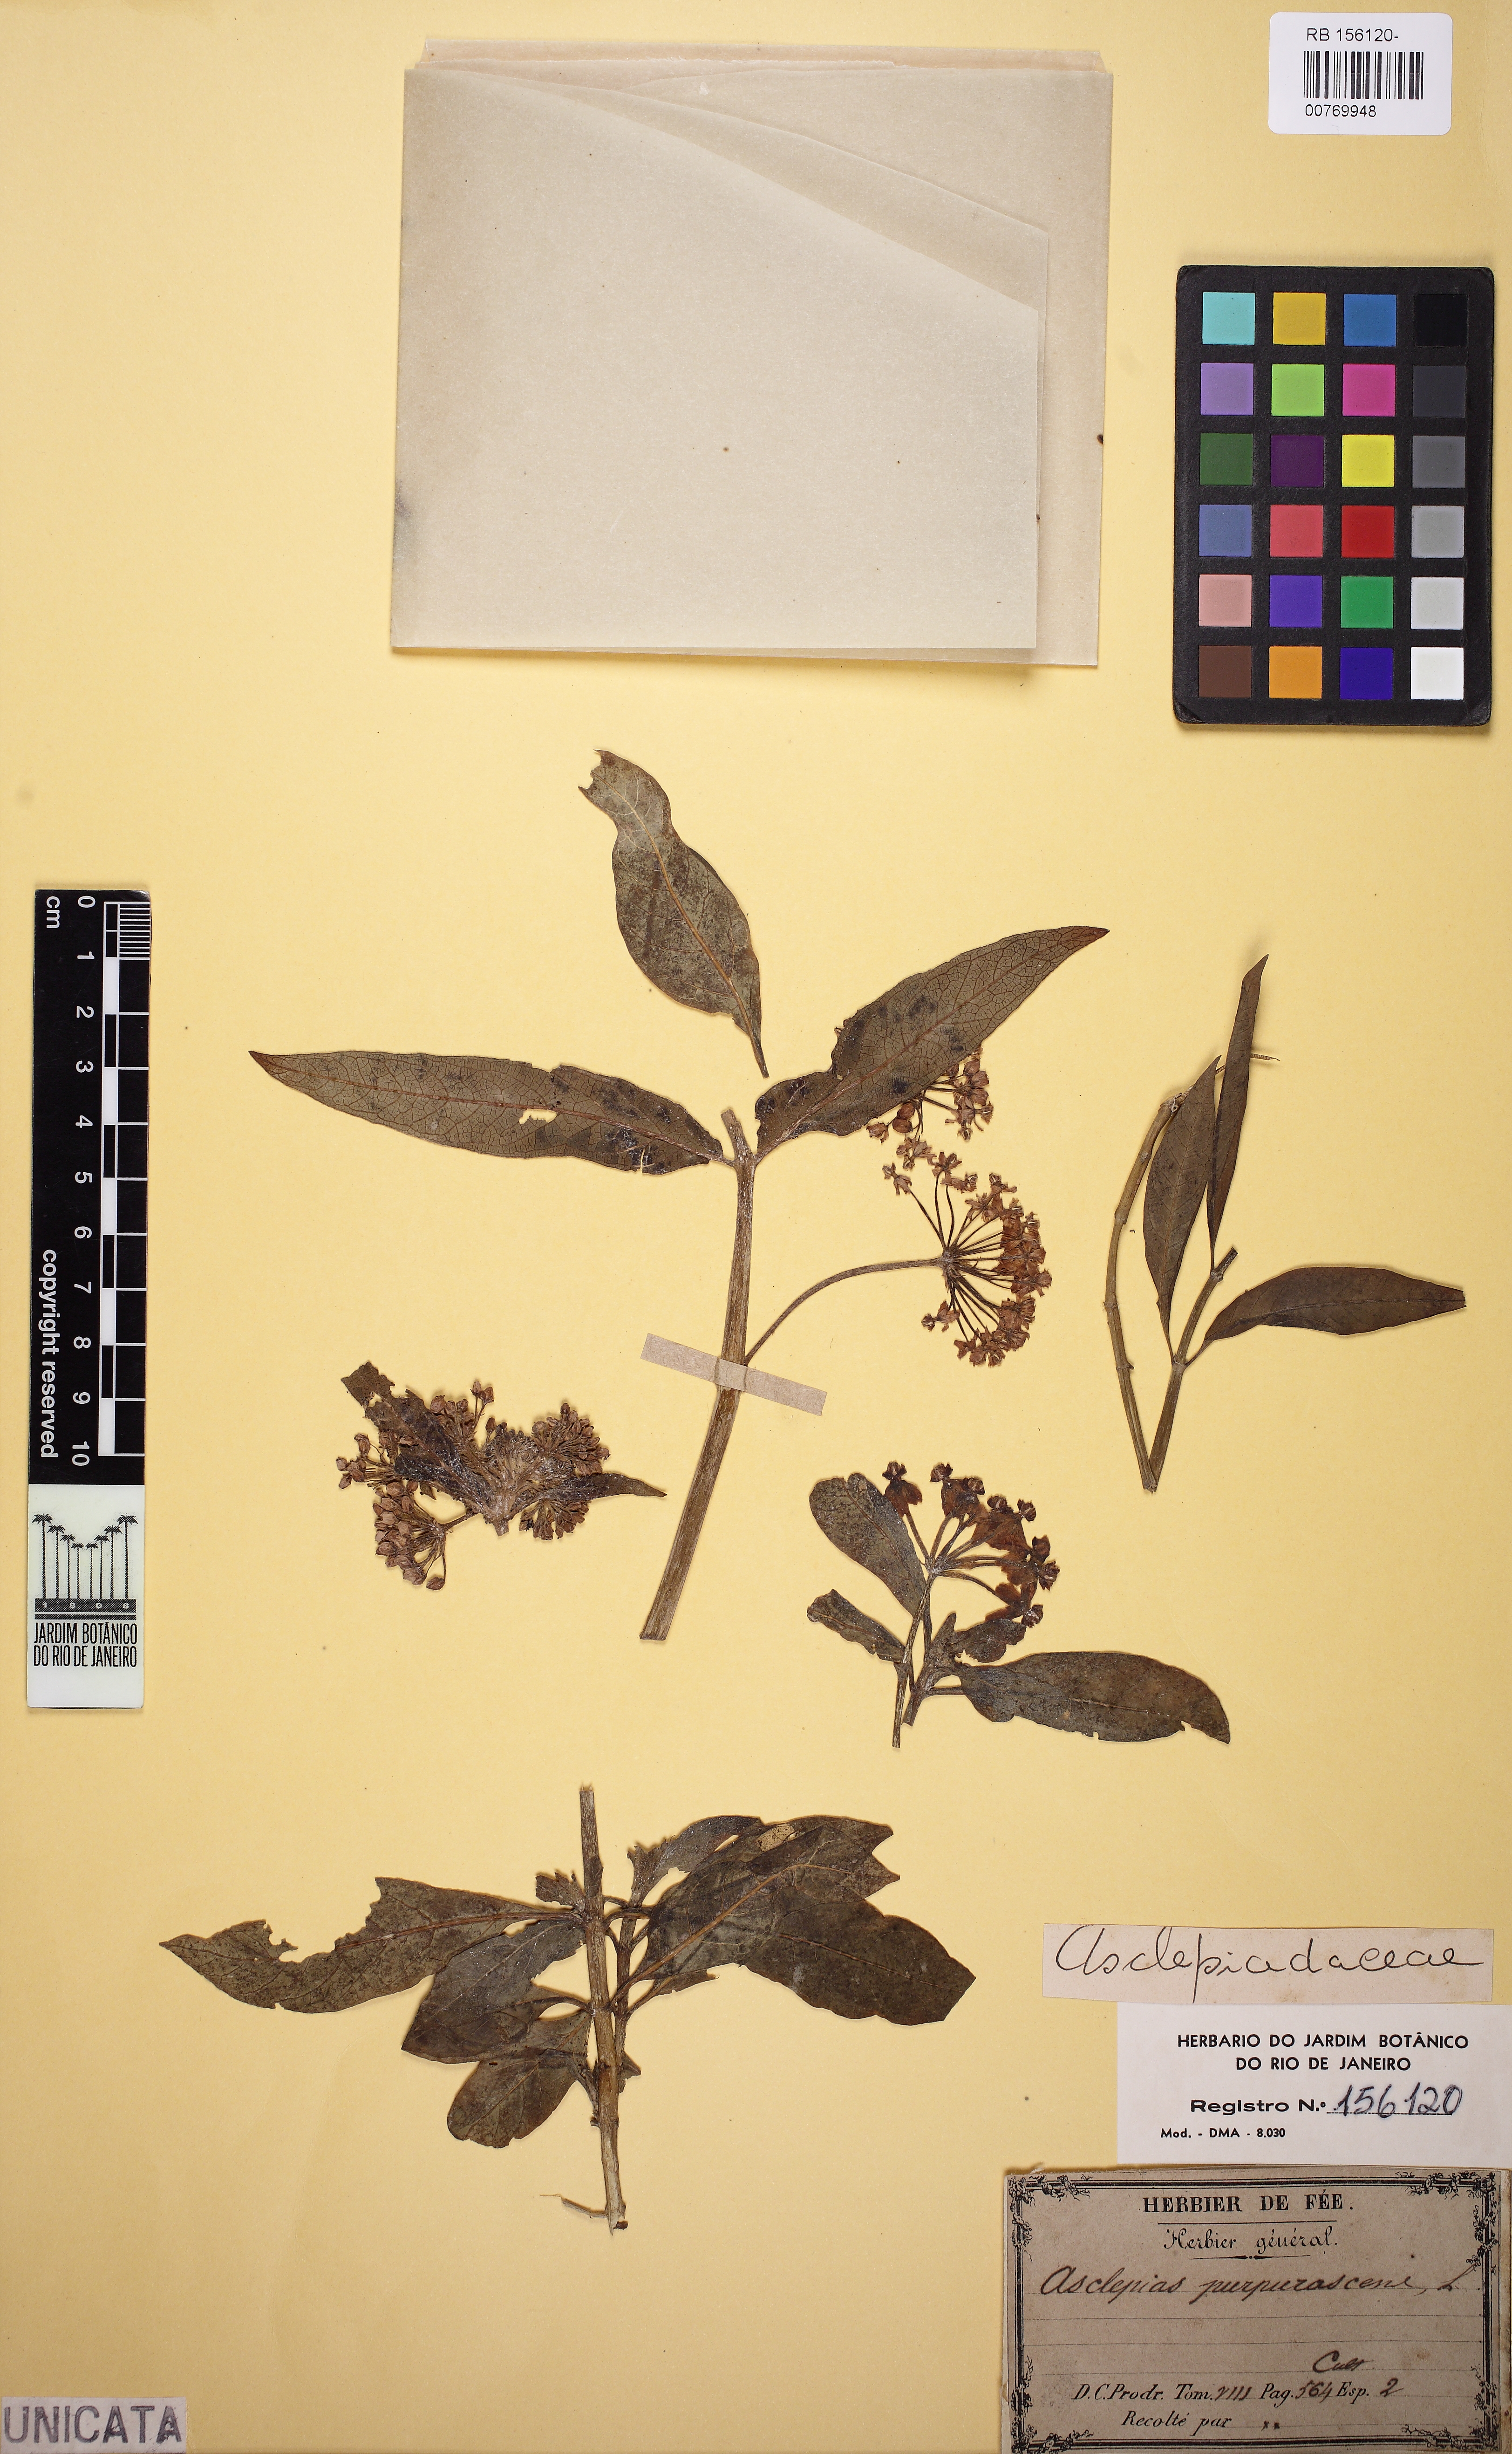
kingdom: Plantae
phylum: Tracheophyta
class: Magnoliopsida
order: Gentianales
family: Apocynaceae
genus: Asclepias
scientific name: Asclepias purpurascens
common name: Purple milkweed
